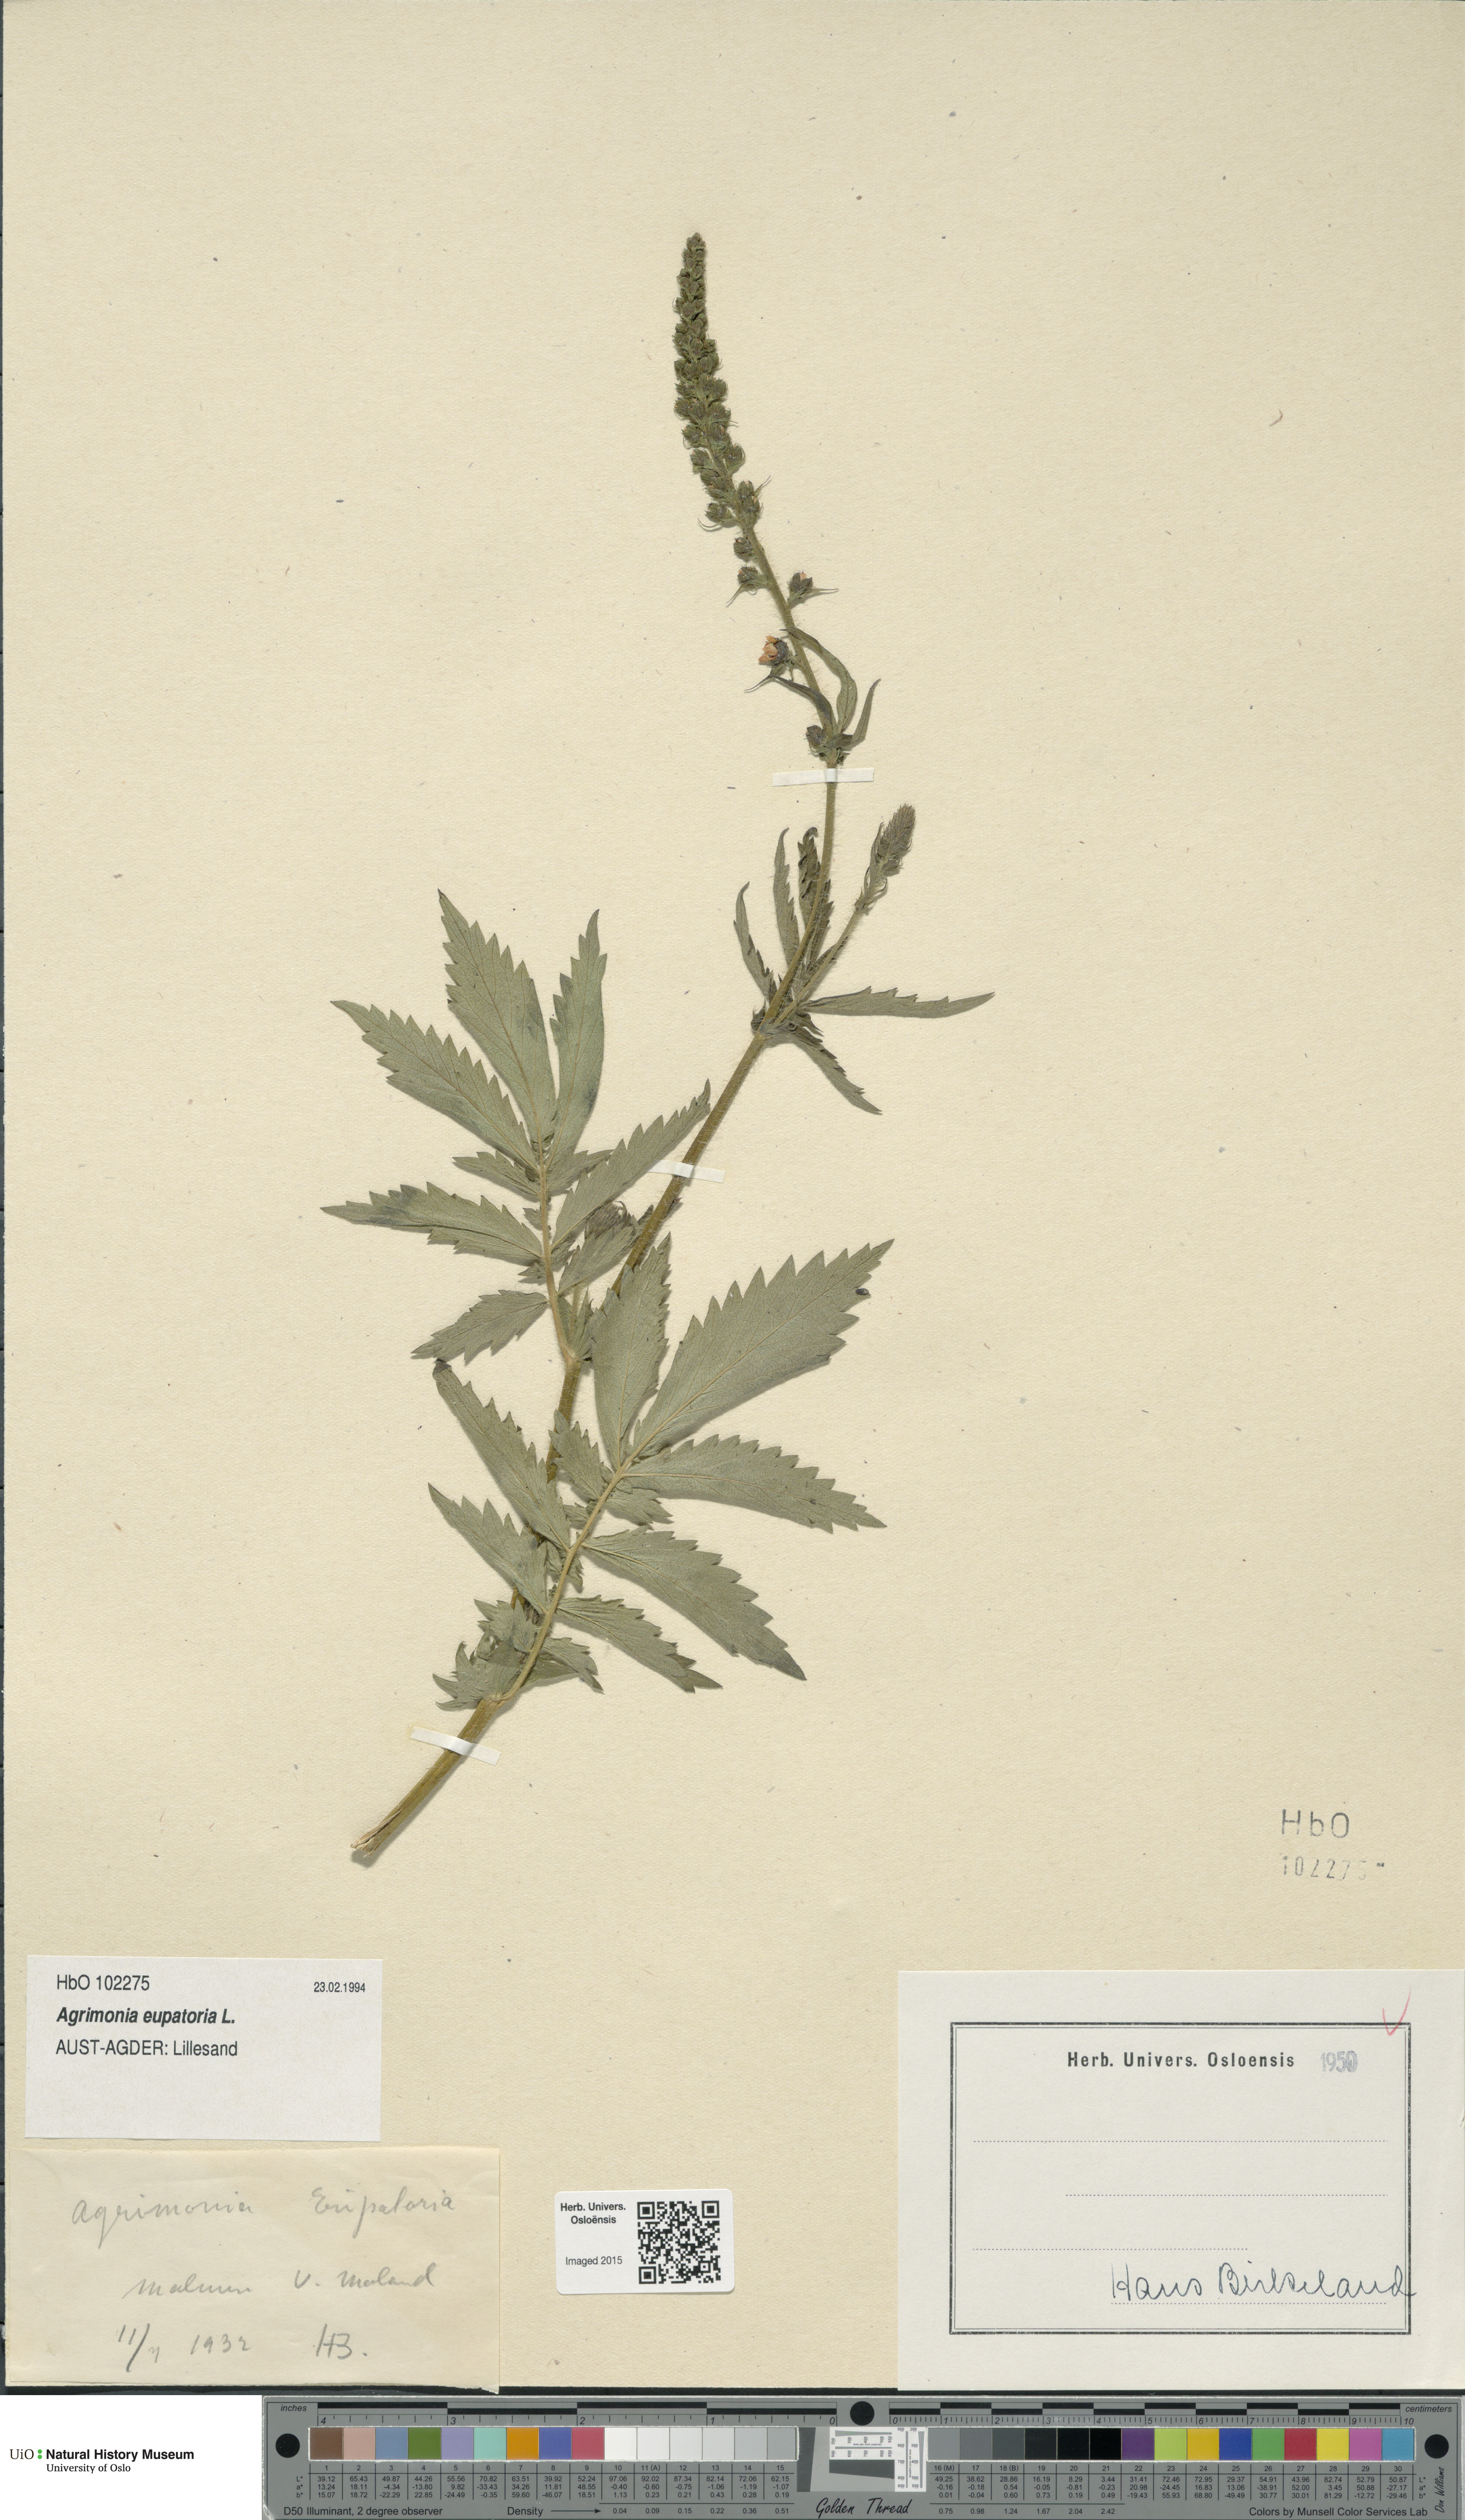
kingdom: Plantae
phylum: Tracheophyta
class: Magnoliopsida
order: Rosales
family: Rosaceae
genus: Agrimonia
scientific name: Agrimonia eupatoria
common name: Agrimony
